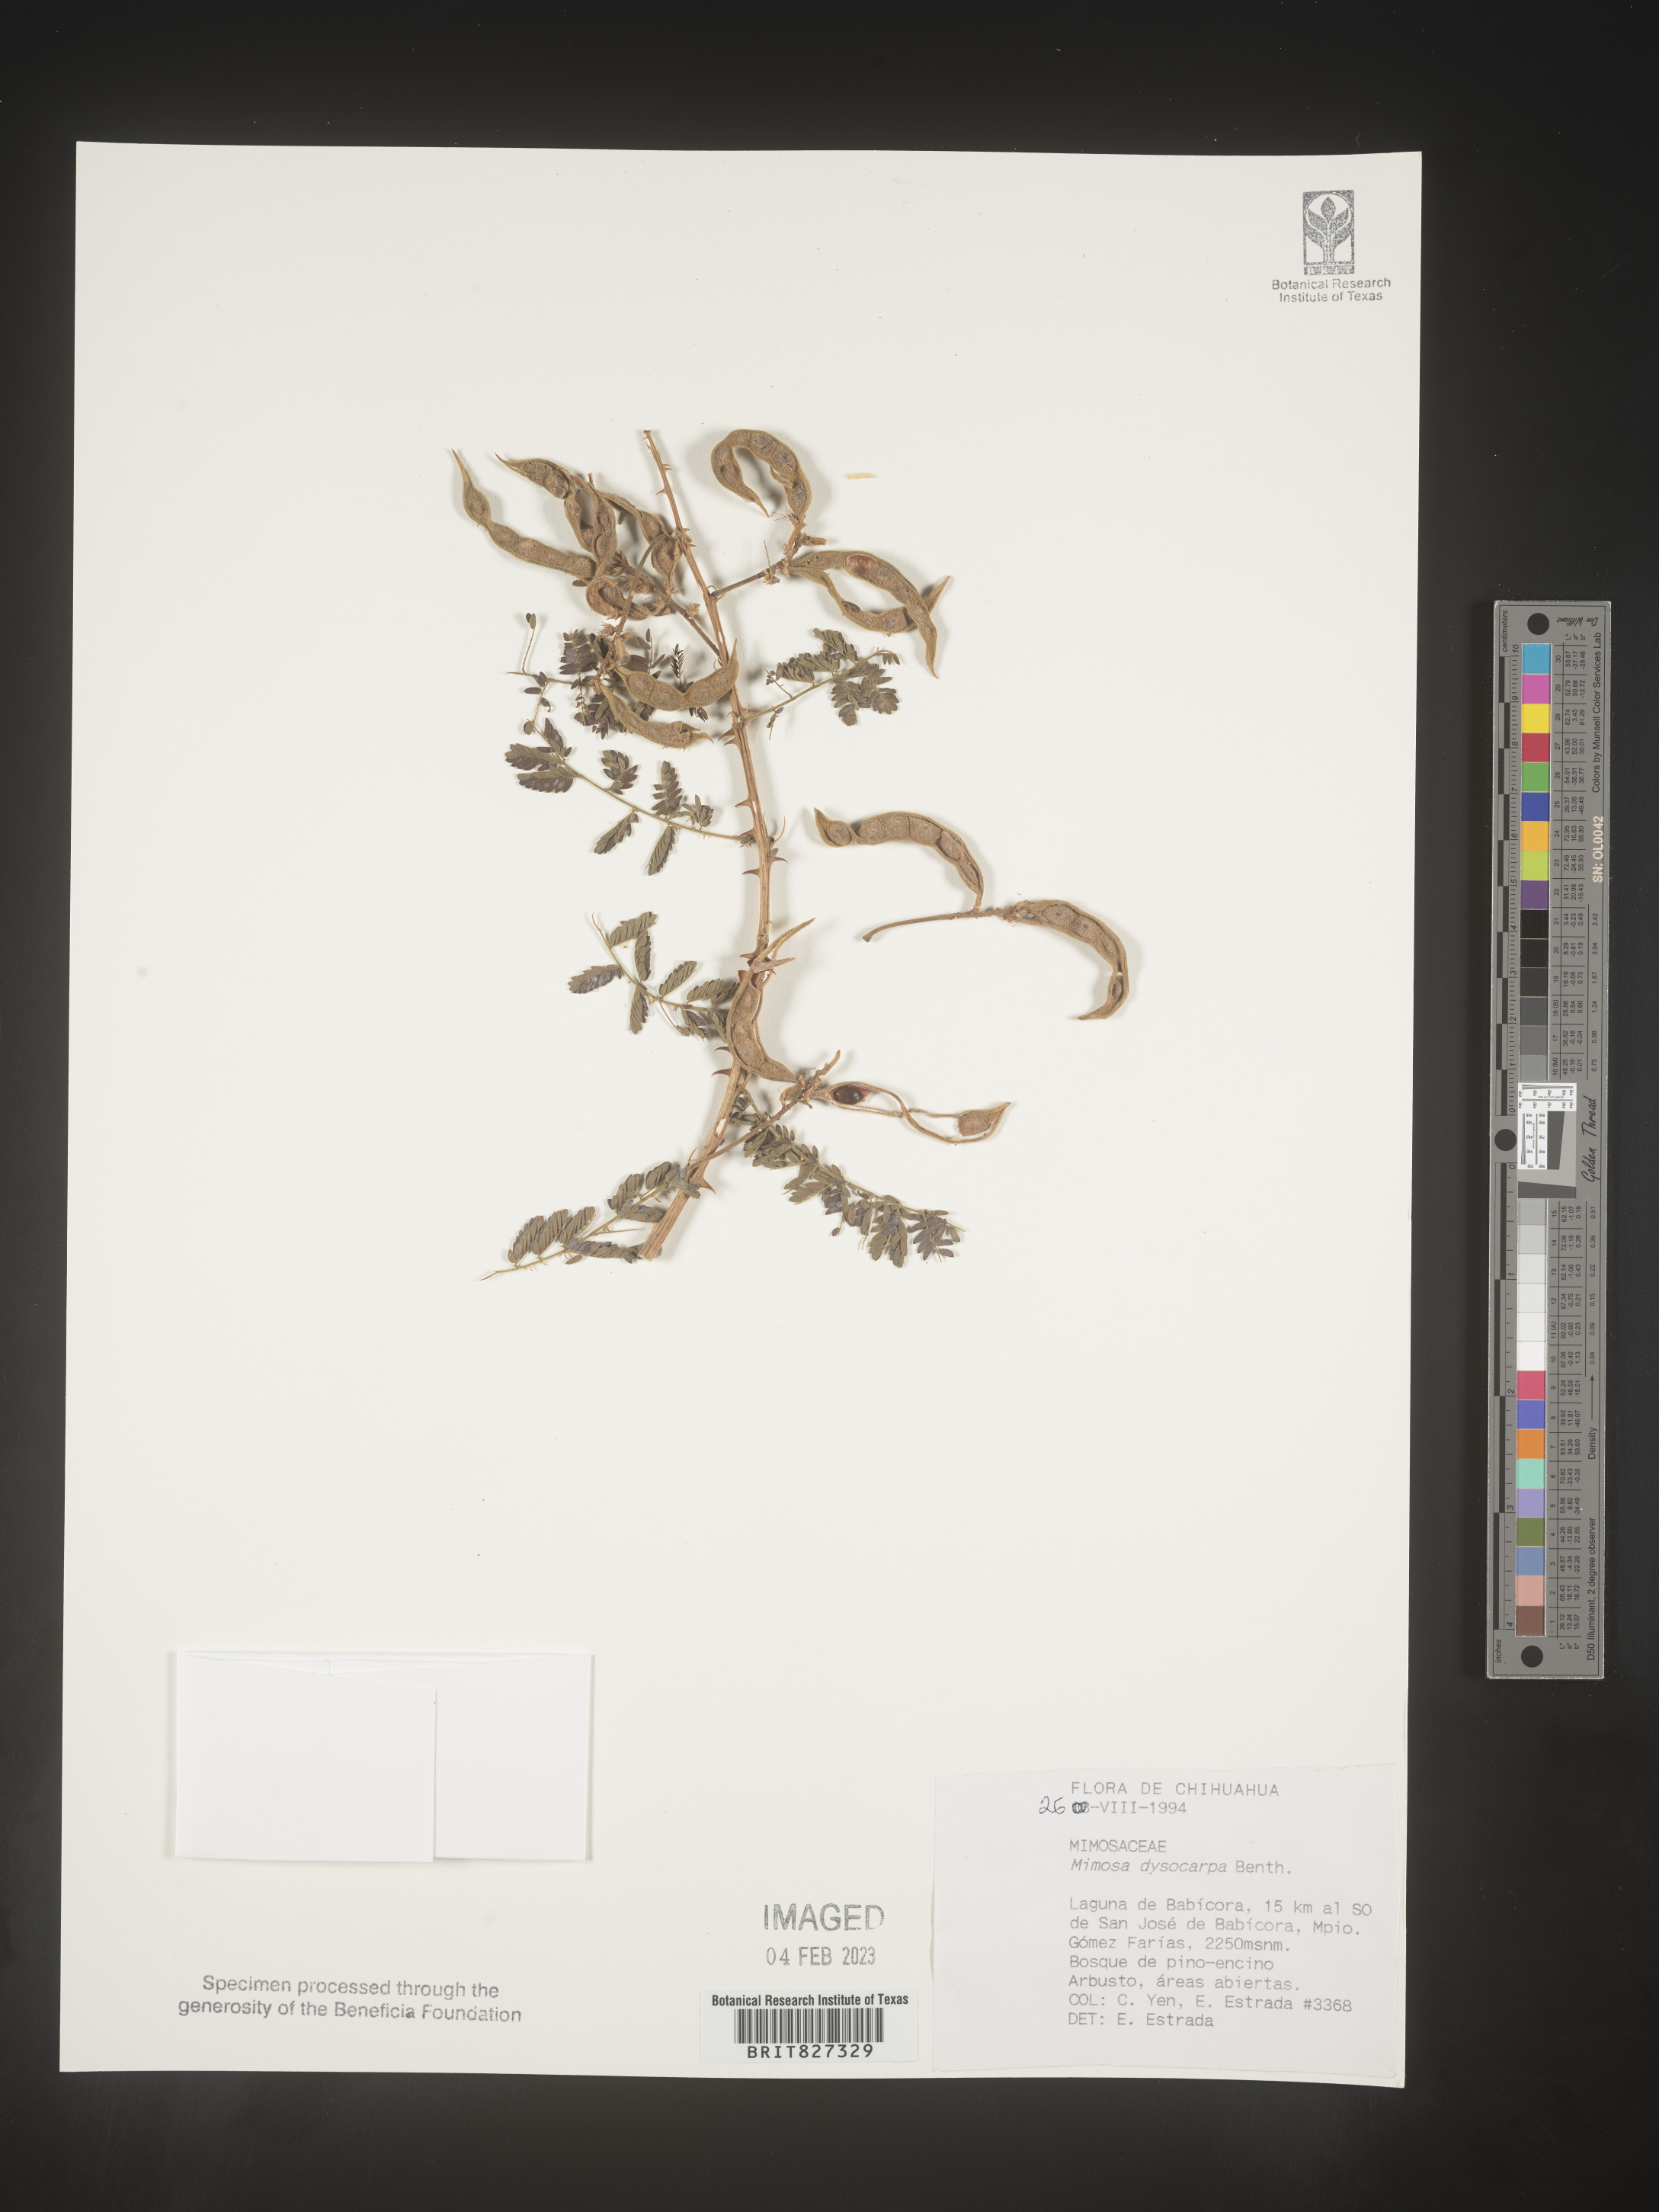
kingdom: Plantae
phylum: Tracheophyta
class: Magnoliopsida
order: Fabales
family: Fabaceae
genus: Mimosa
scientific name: Mimosa
